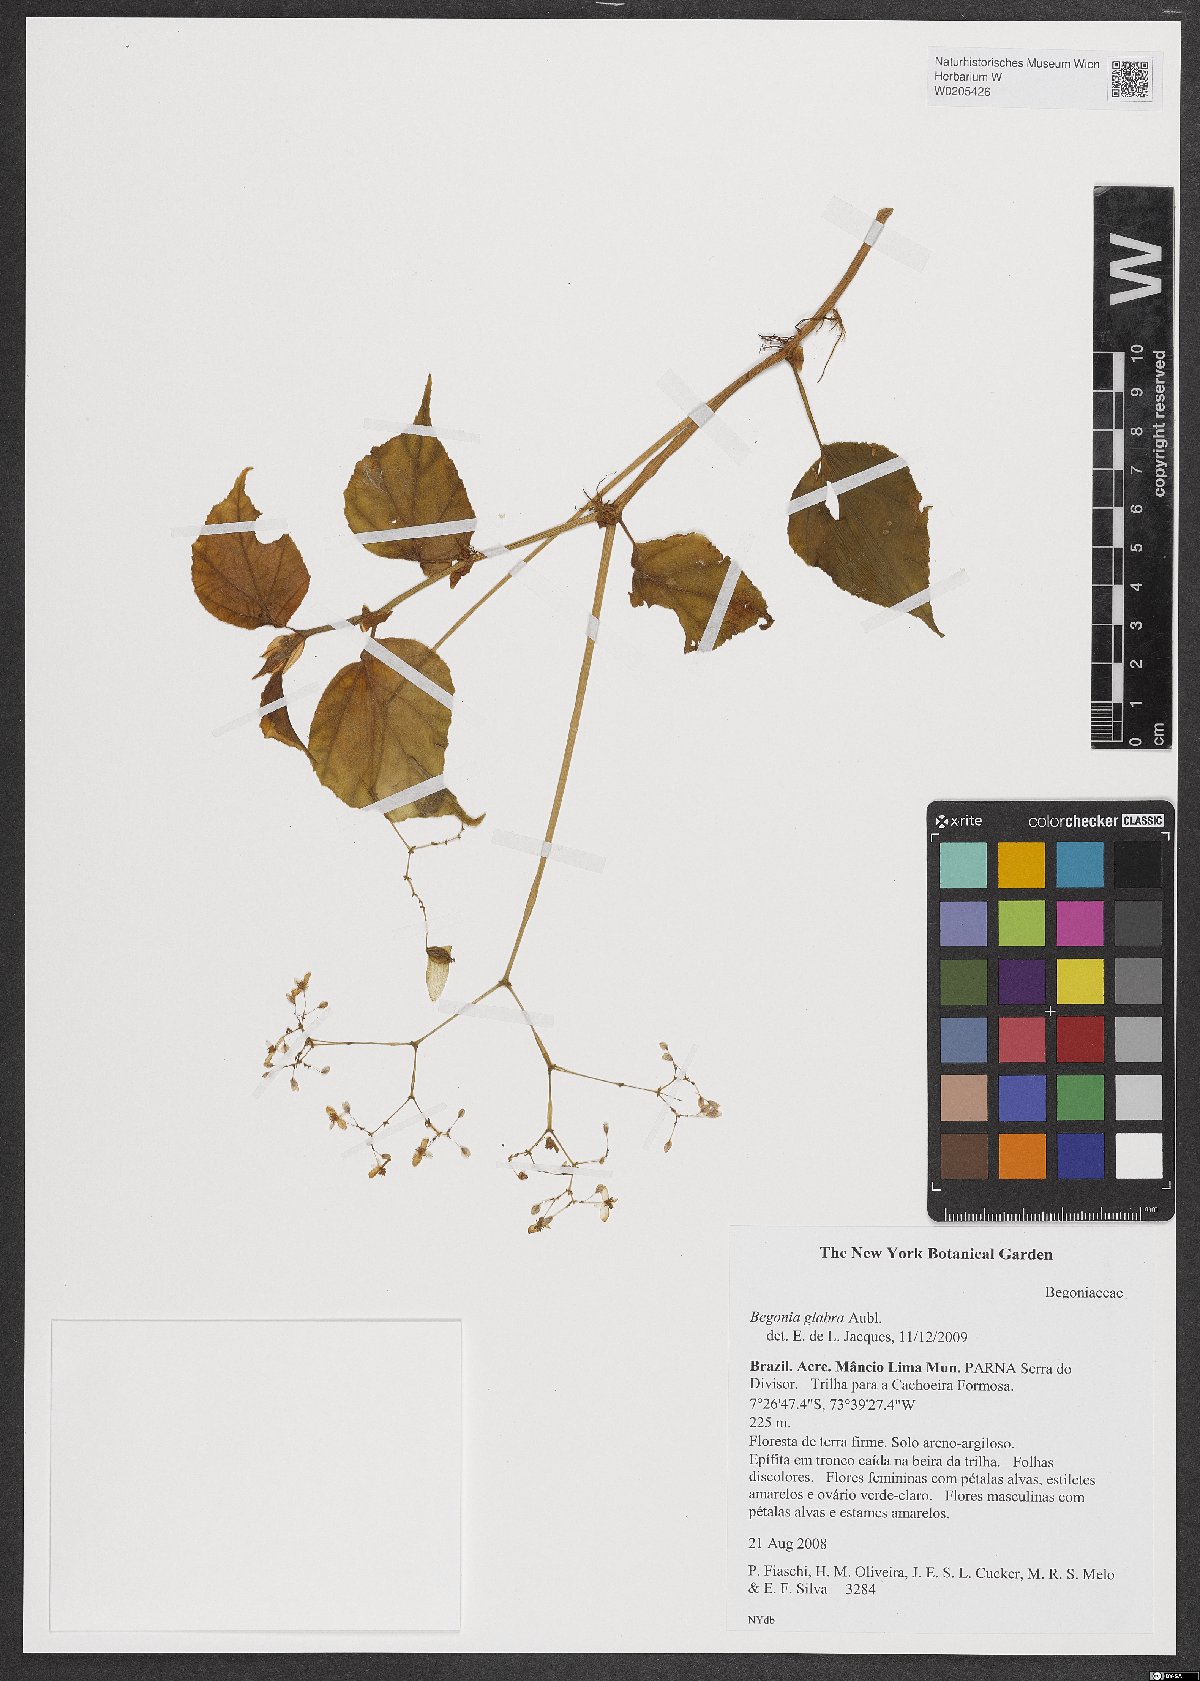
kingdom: Plantae
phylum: Tracheophyta
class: Magnoliopsida
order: Cucurbitales
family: Begoniaceae
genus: Begonia
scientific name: Begonia glabra
